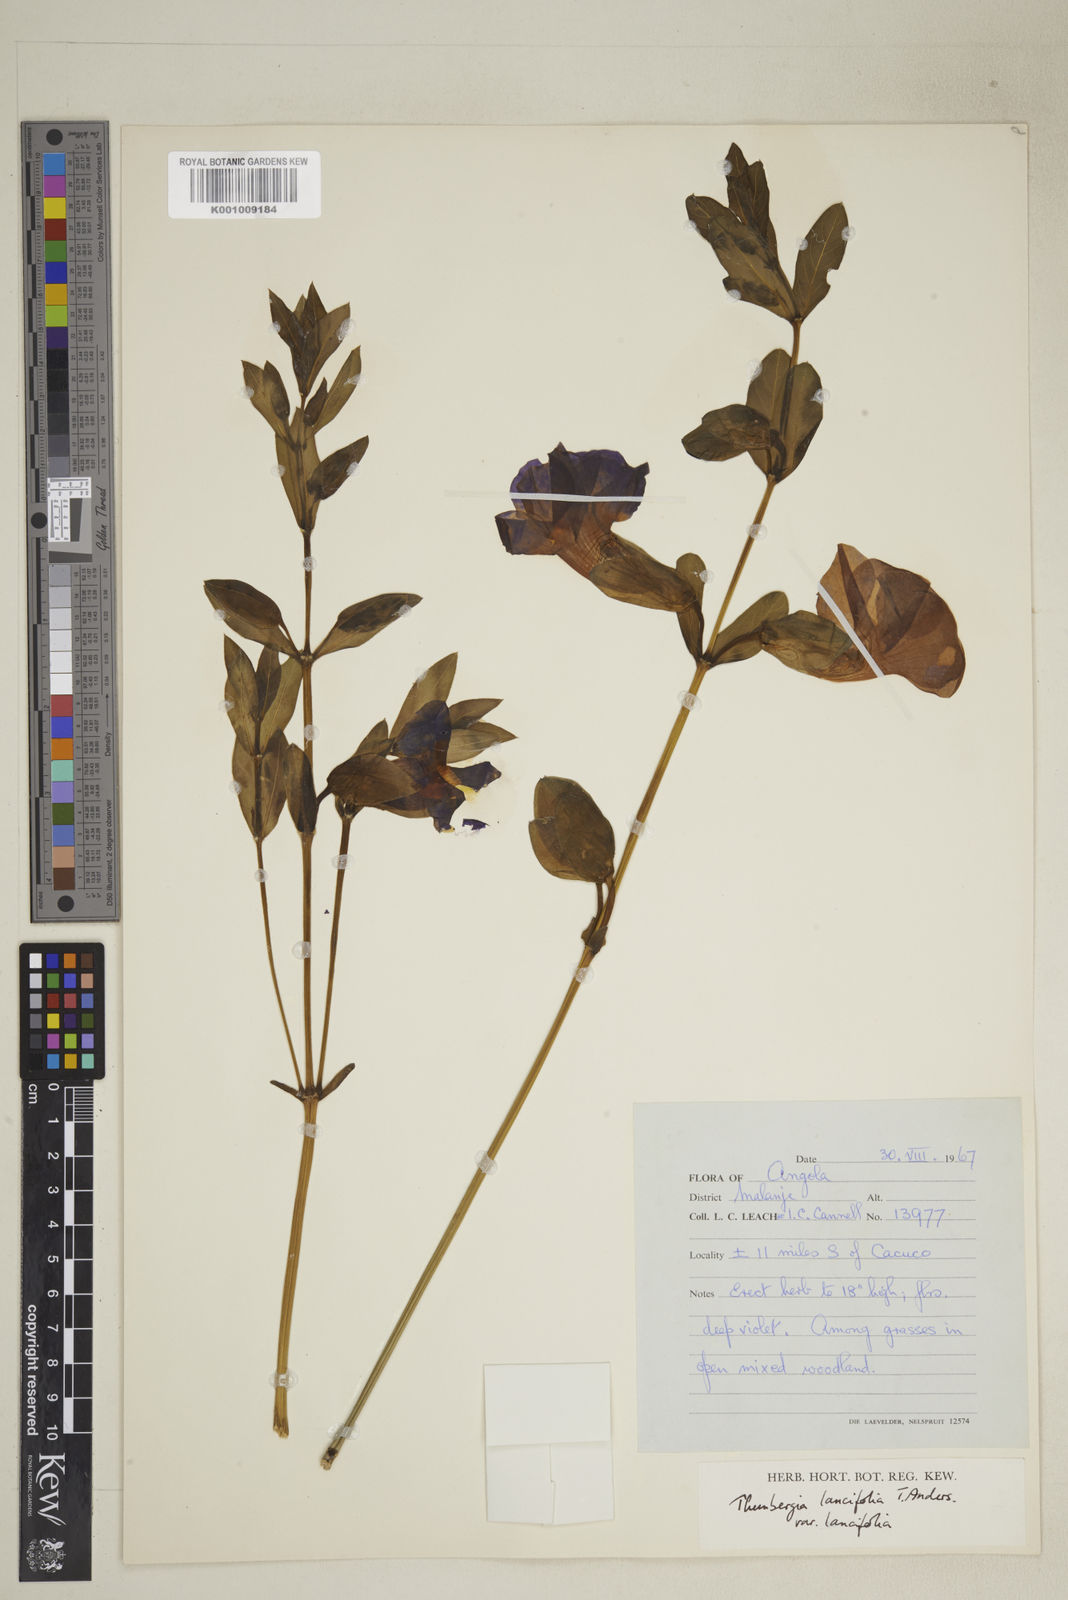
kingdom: Plantae
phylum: Tracheophyta
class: Magnoliopsida
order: Lamiales
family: Acanthaceae
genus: Thunbergia
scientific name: Thunbergia lancifolia
